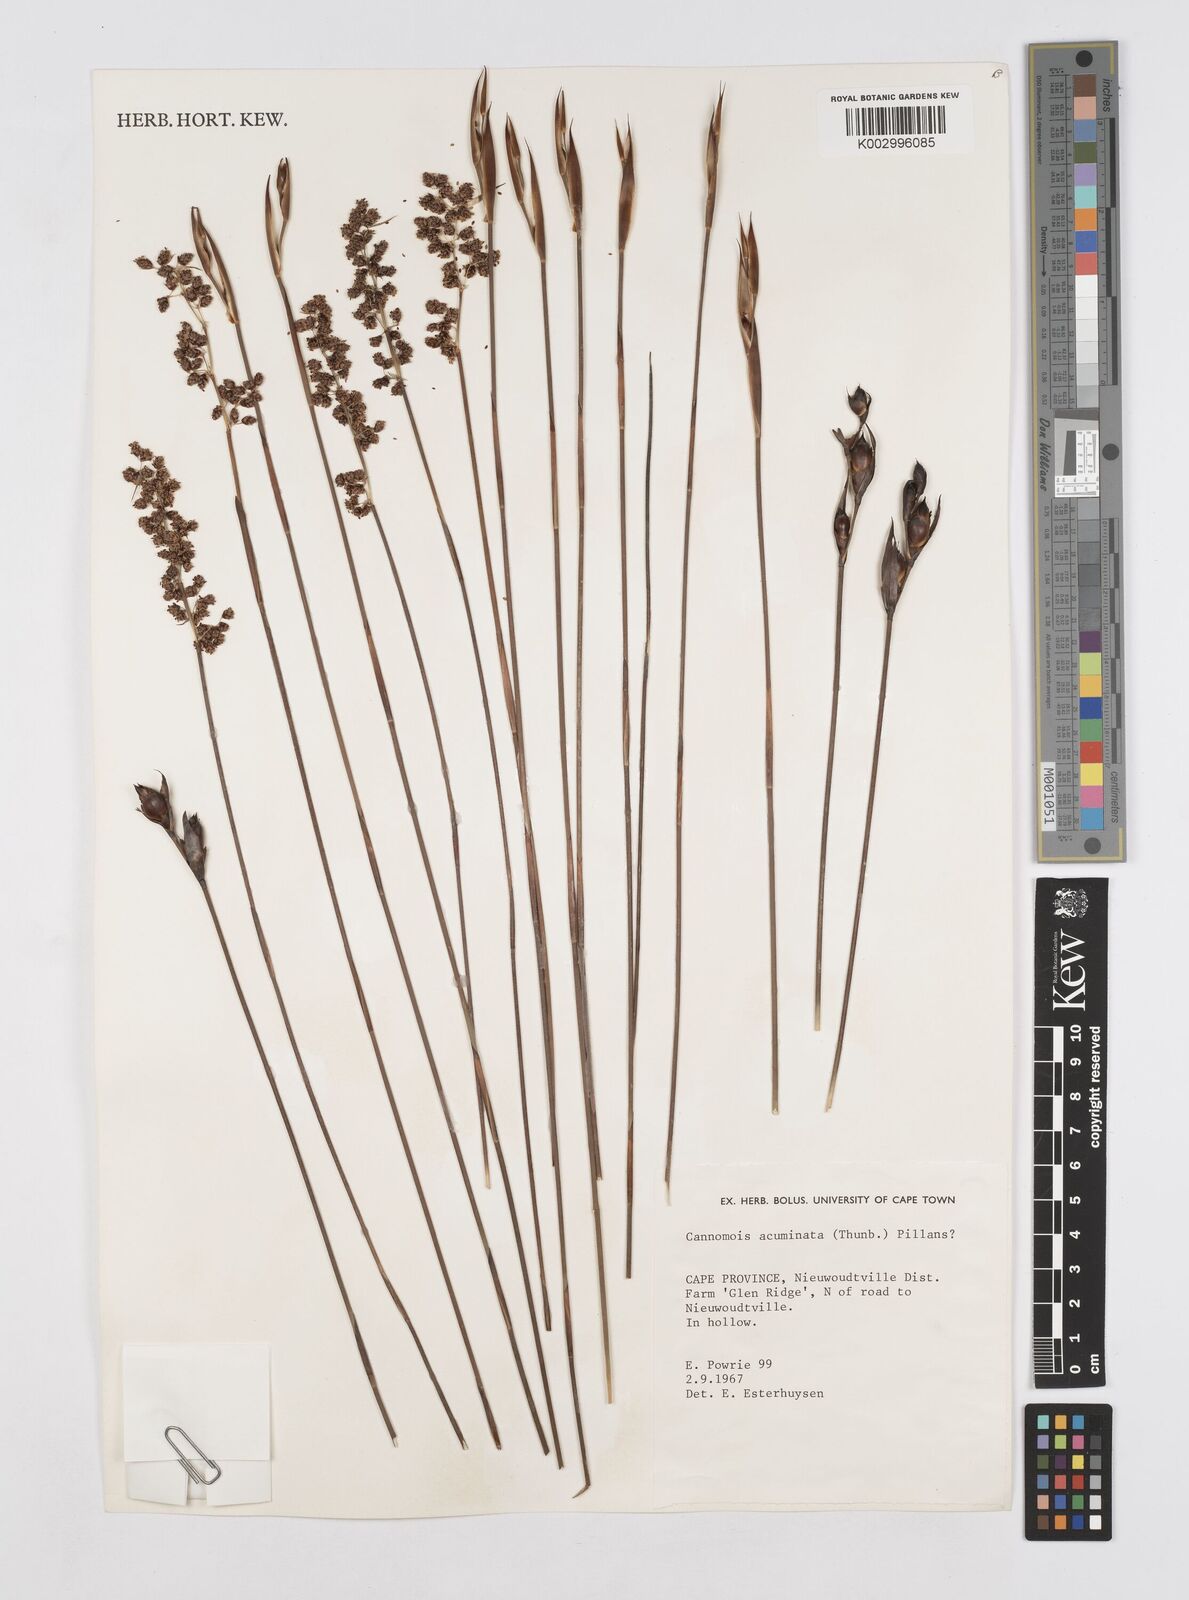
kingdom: Plantae
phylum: Tracheophyta
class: Liliopsida
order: Poales
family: Restionaceae
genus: Cannomois
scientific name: Cannomois parviflora
